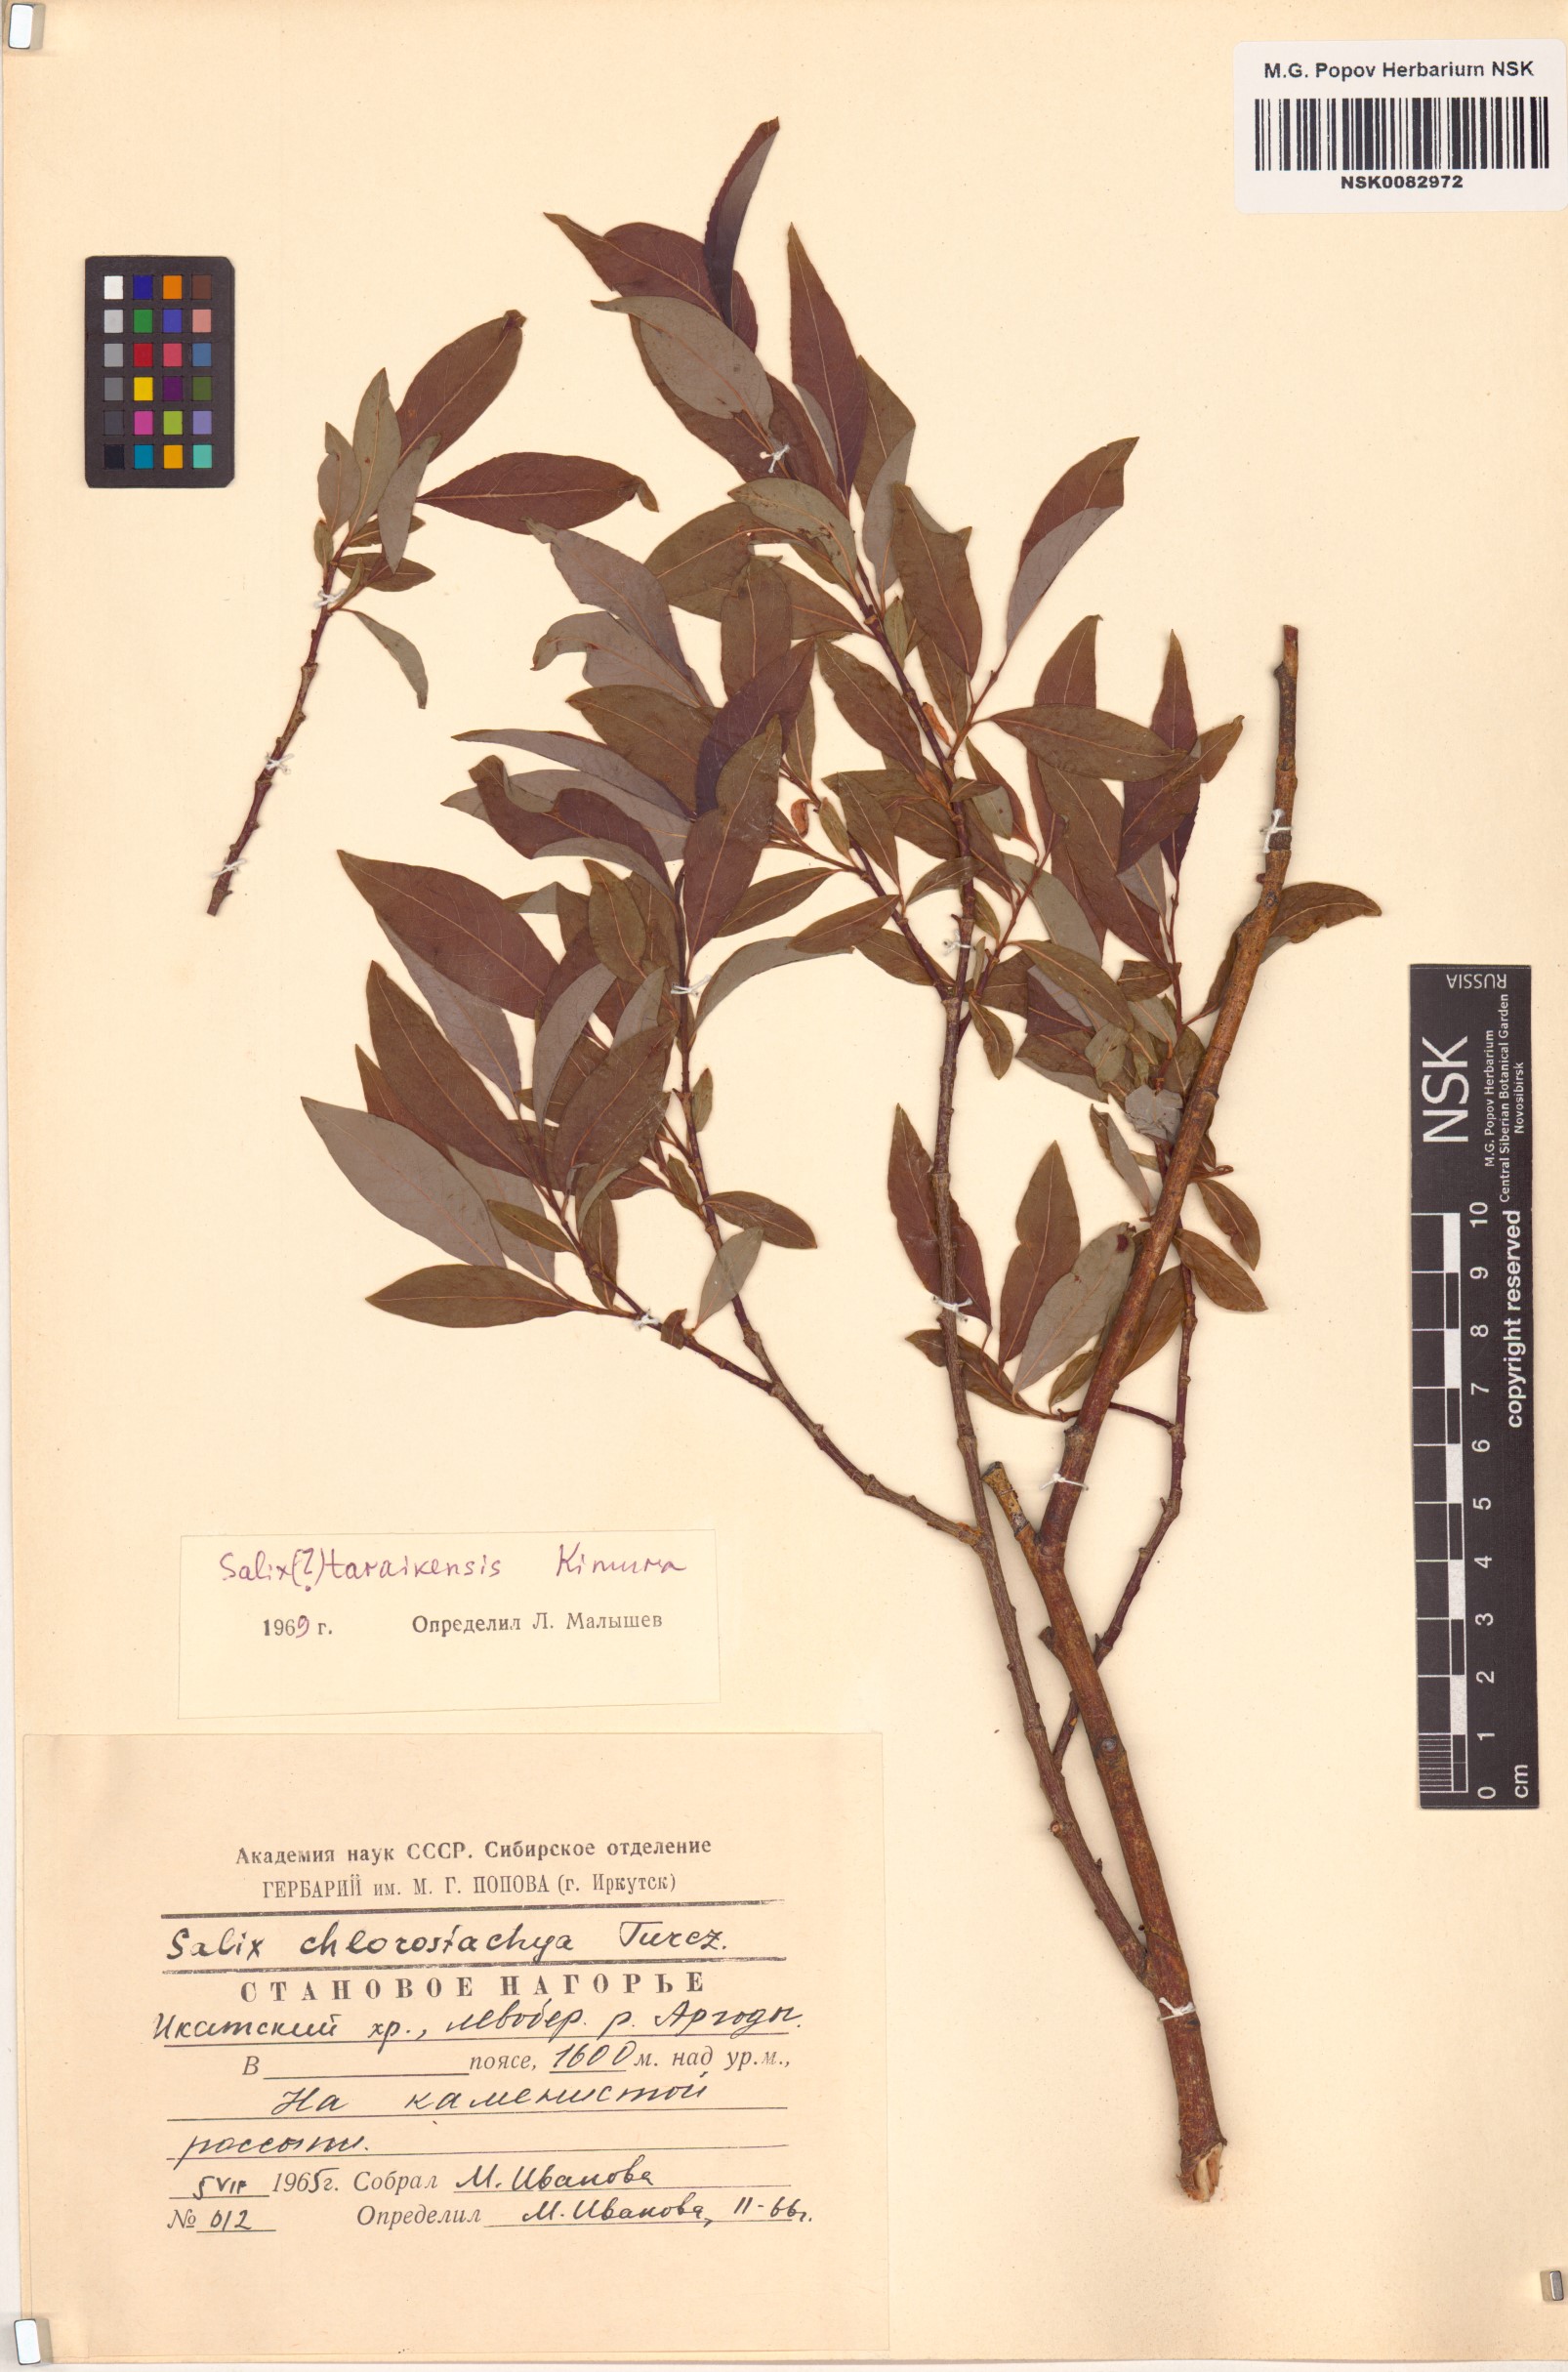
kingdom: Plantae
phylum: Tracheophyta
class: Magnoliopsida
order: Malpighiales
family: Salicaceae
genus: Salix
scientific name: Salix taraikensis
